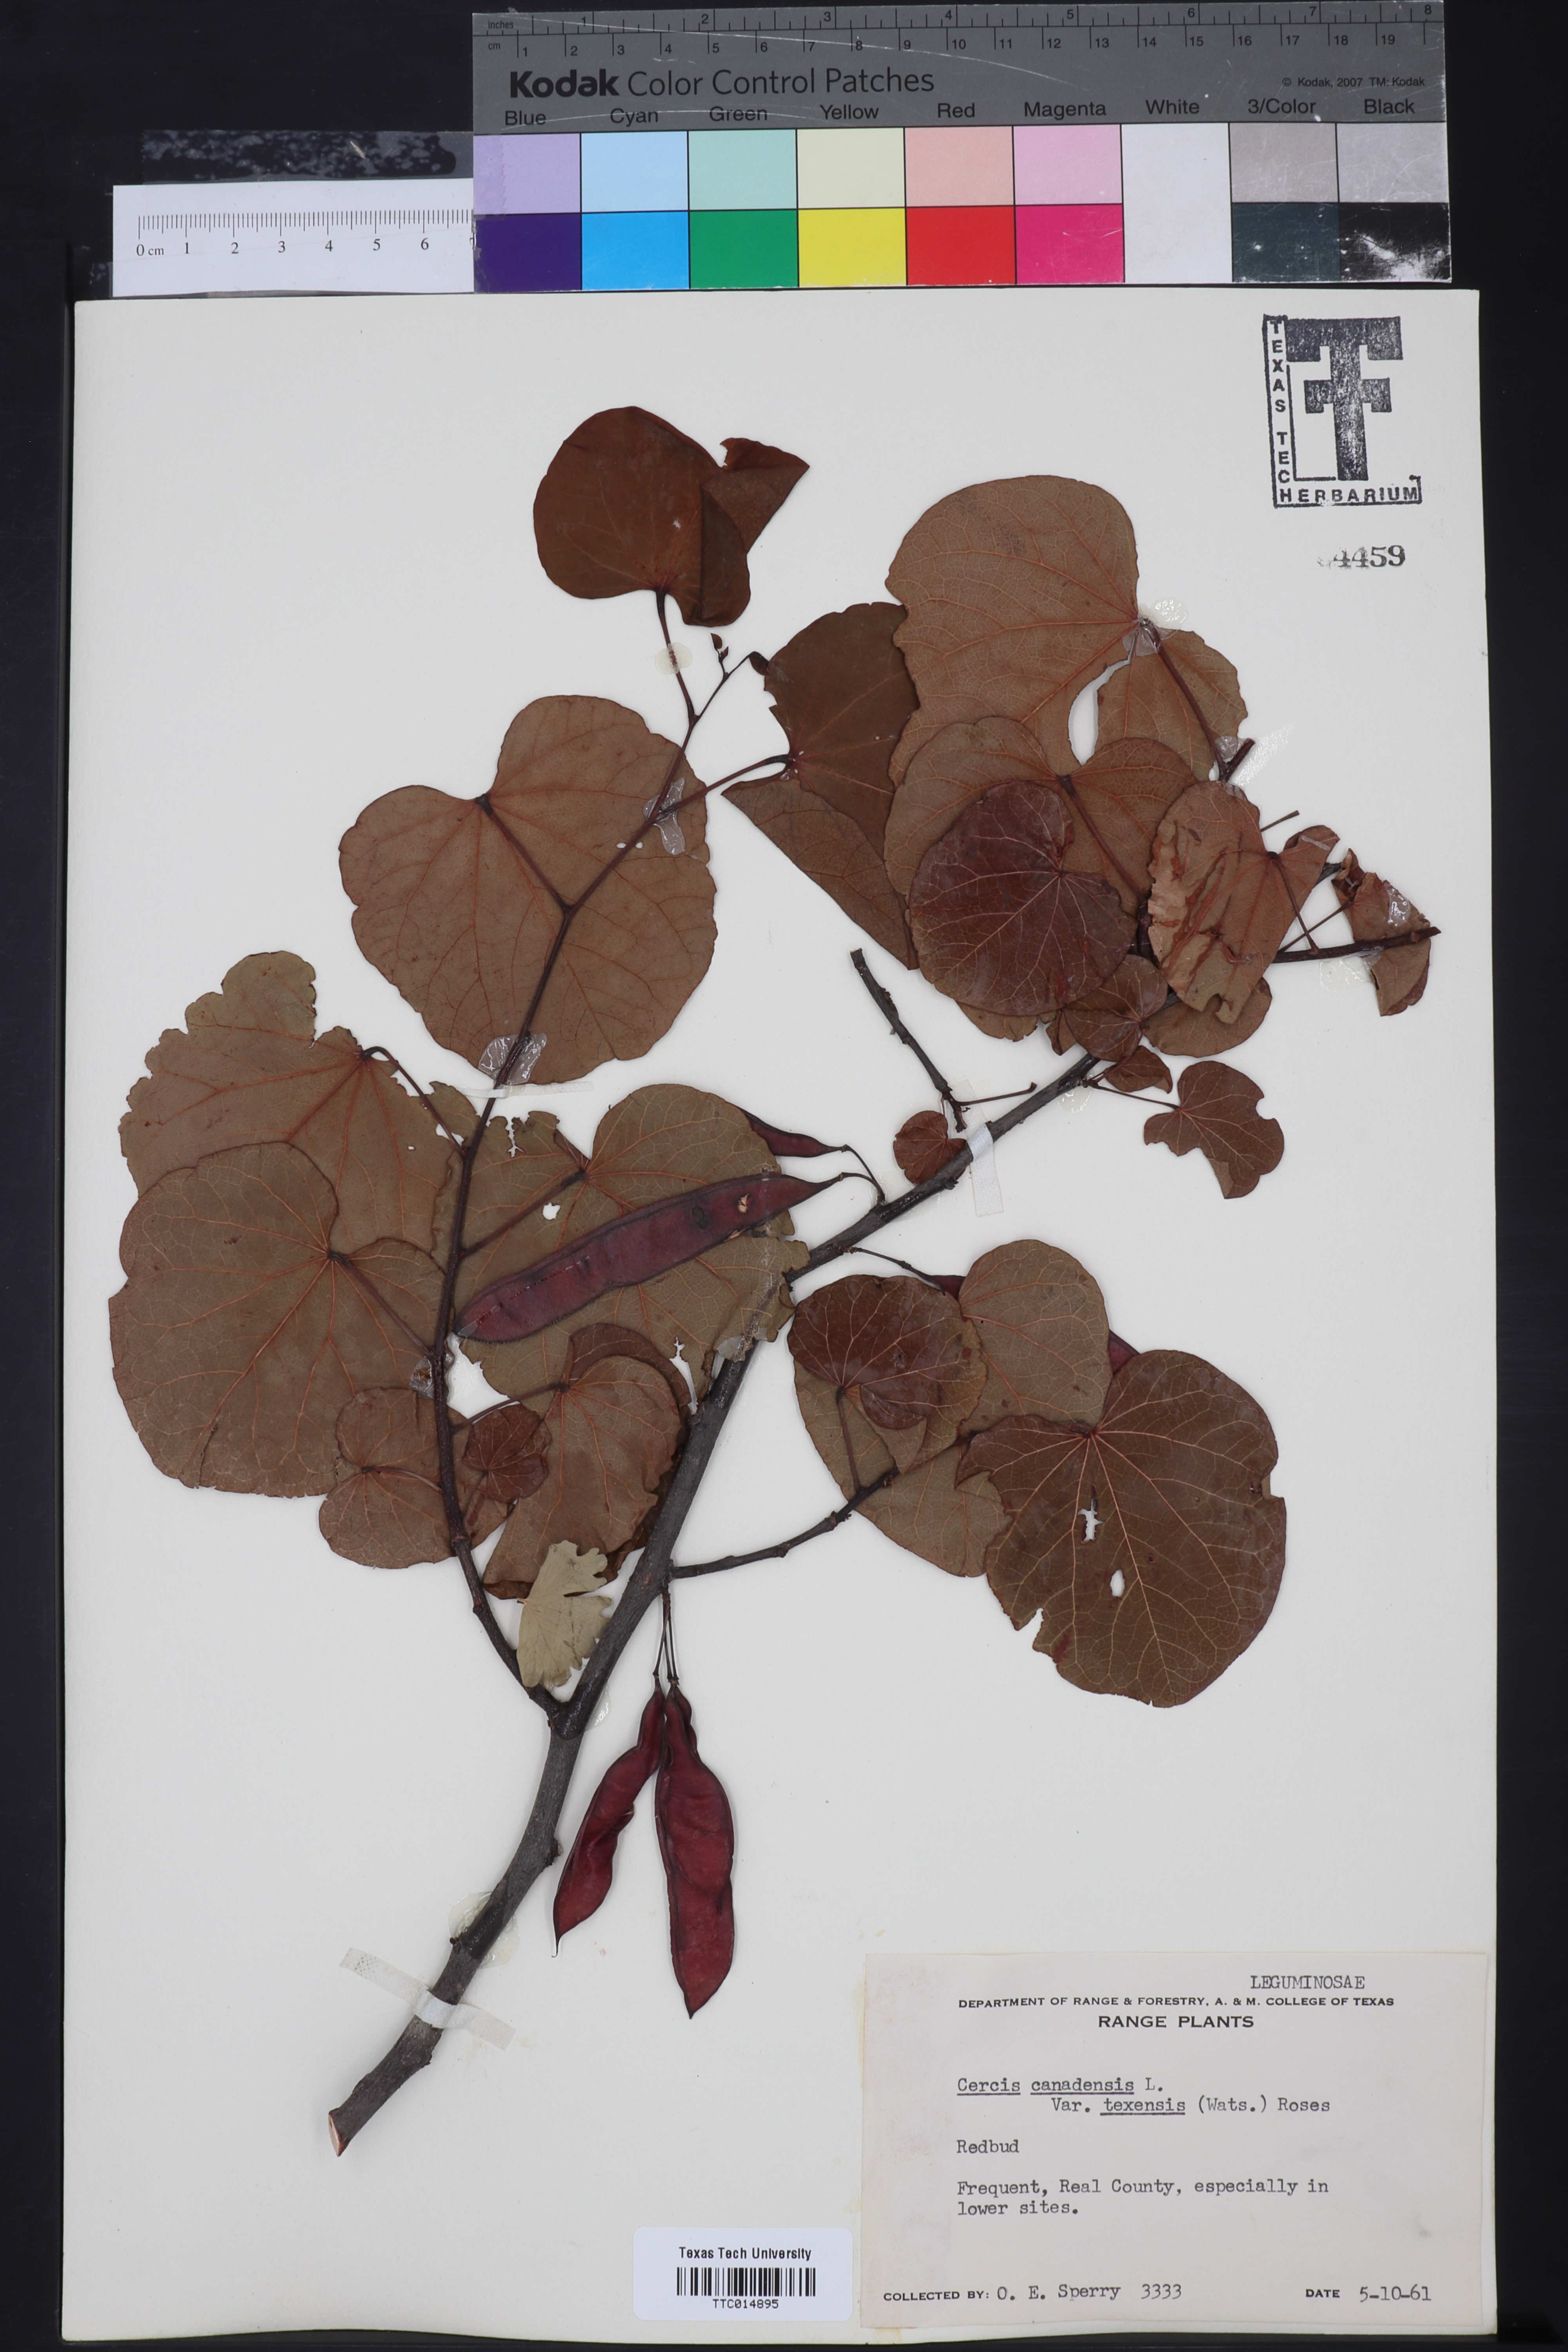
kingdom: Plantae
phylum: Tracheophyta
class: Magnoliopsida
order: Fabales
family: Fabaceae
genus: Cercis
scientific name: Cercis canadensis
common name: Eastern redbud
